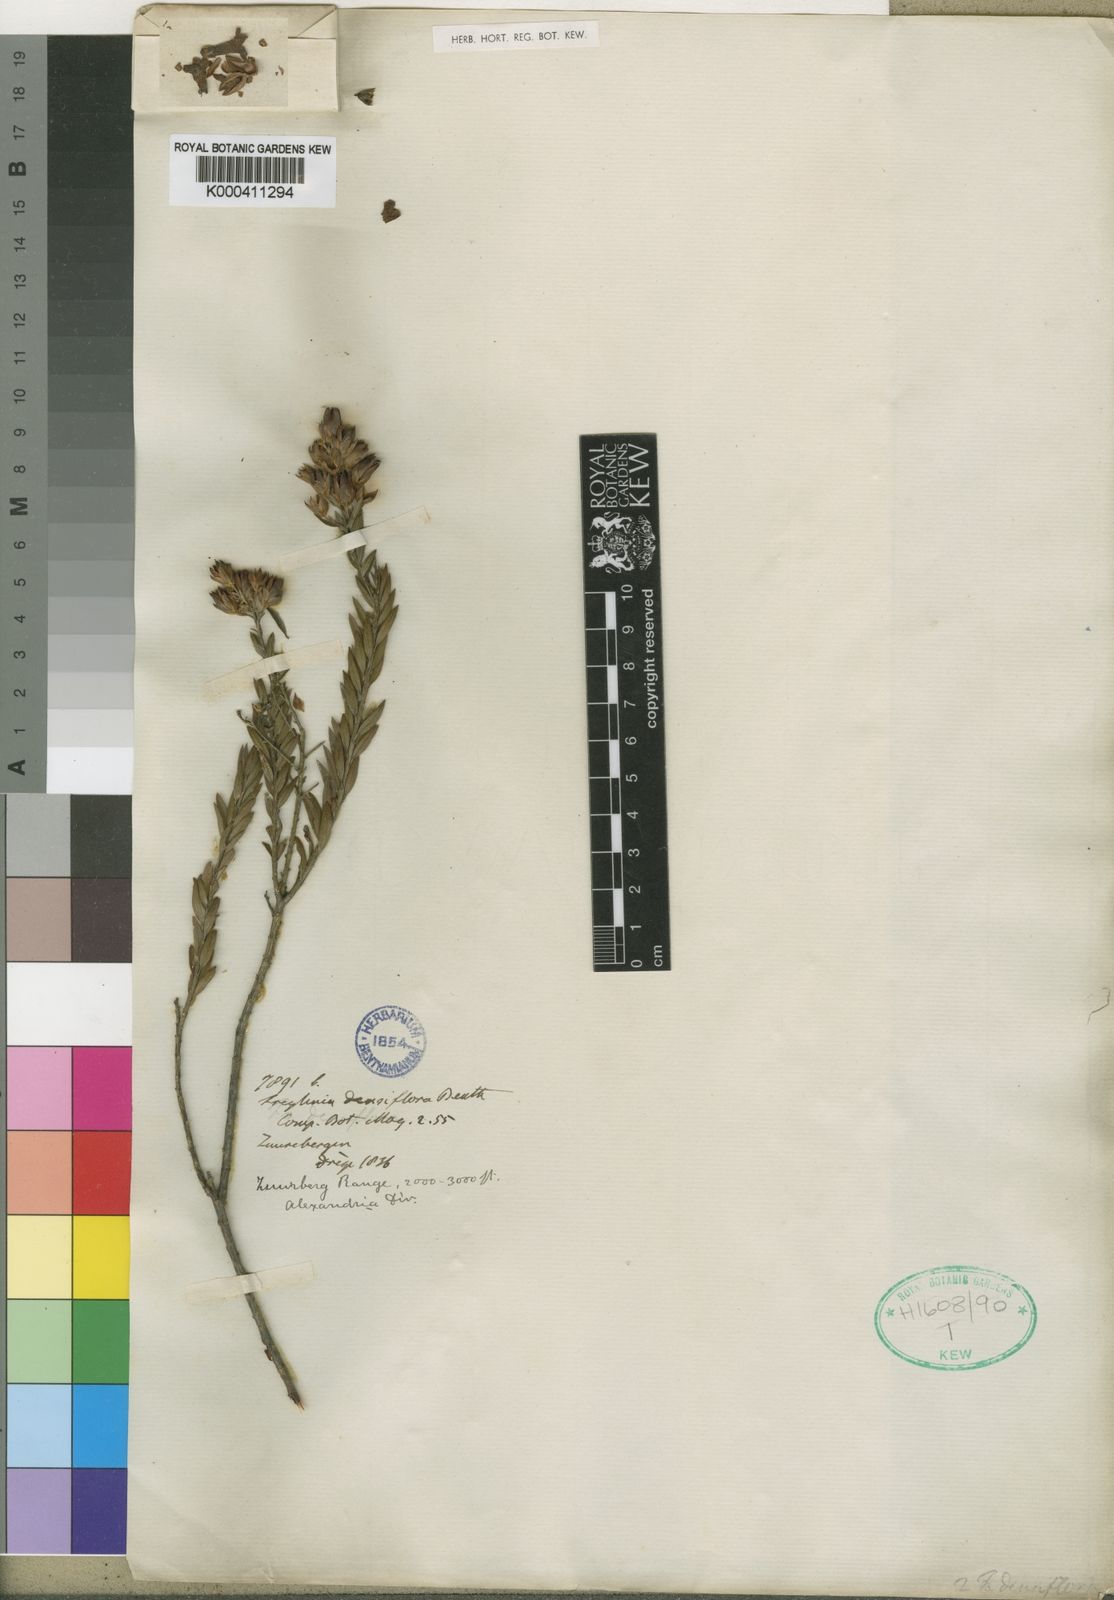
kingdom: Plantae
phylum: Tracheophyta
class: Magnoliopsida
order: Lamiales
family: Scrophulariaceae
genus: Freylinia
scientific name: Freylinia undulata
